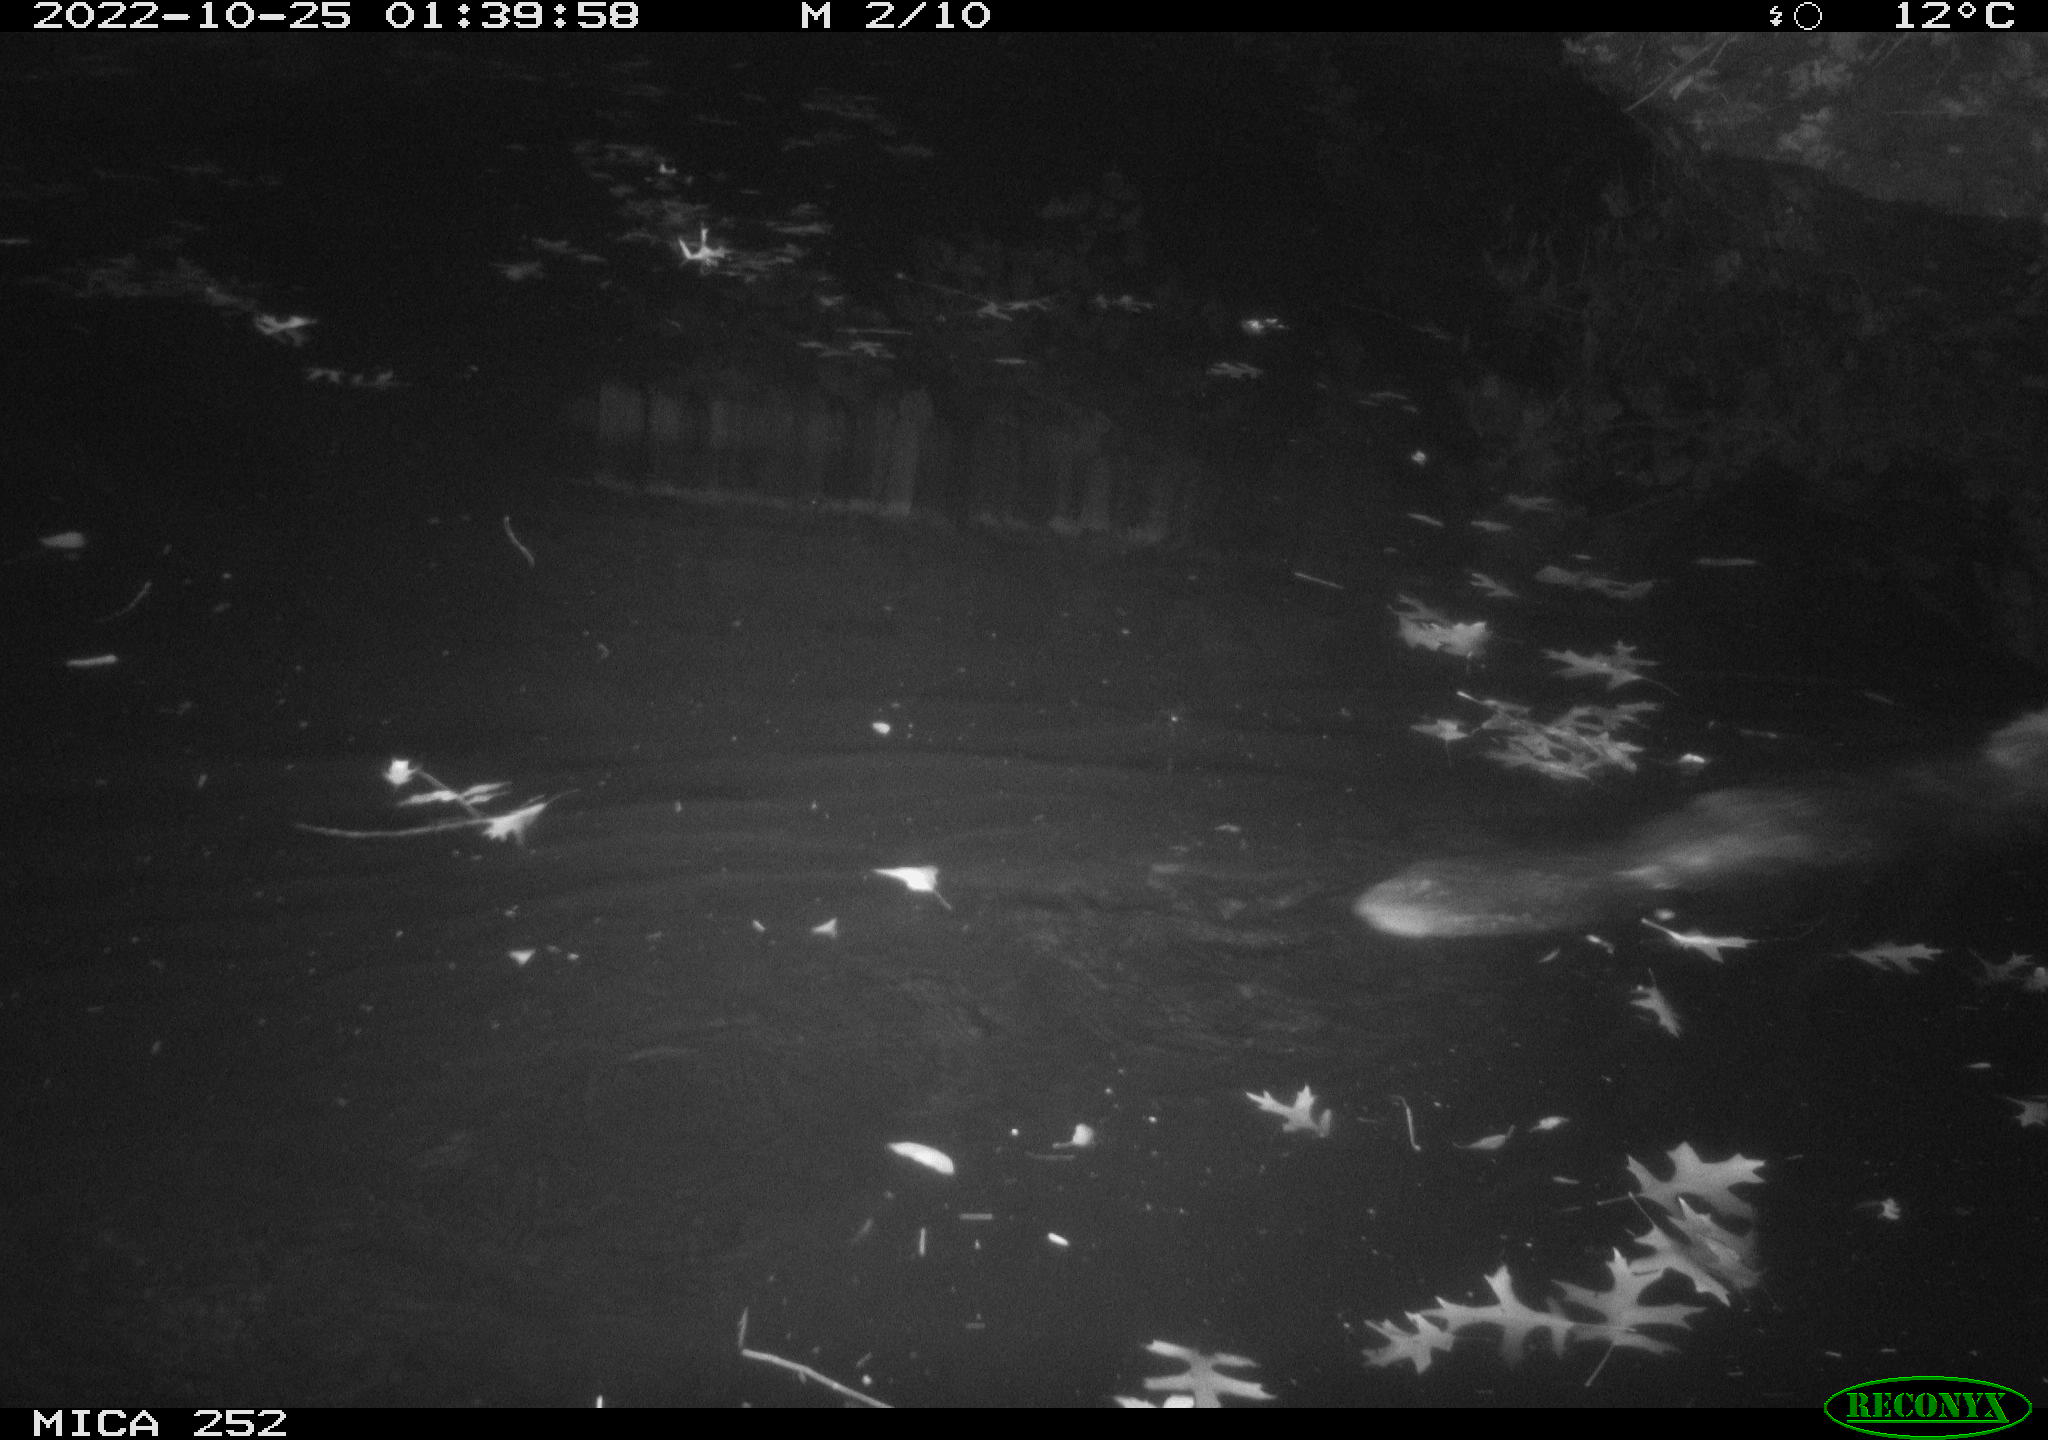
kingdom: Animalia
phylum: Chordata
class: Mammalia
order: Rodentia
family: Castoridae
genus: Castor
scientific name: Castor fiber
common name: Eurasian beaver
